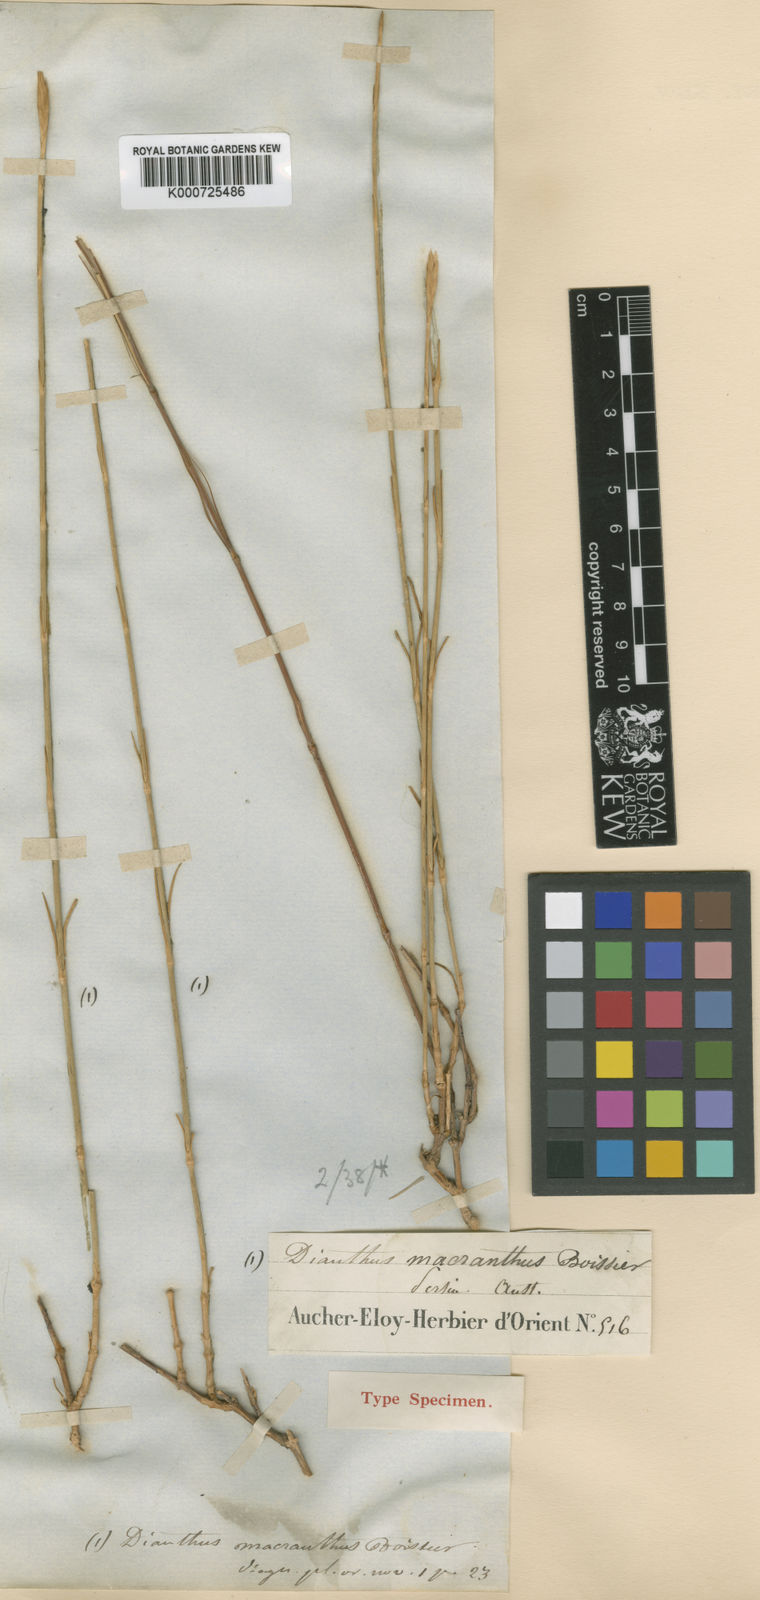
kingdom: Plantae
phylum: Tracheophyta
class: Magnoliopsida
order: Caryophyllales
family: Caryophyllaceae
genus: Dianthus
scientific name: Dianthus macranthus
